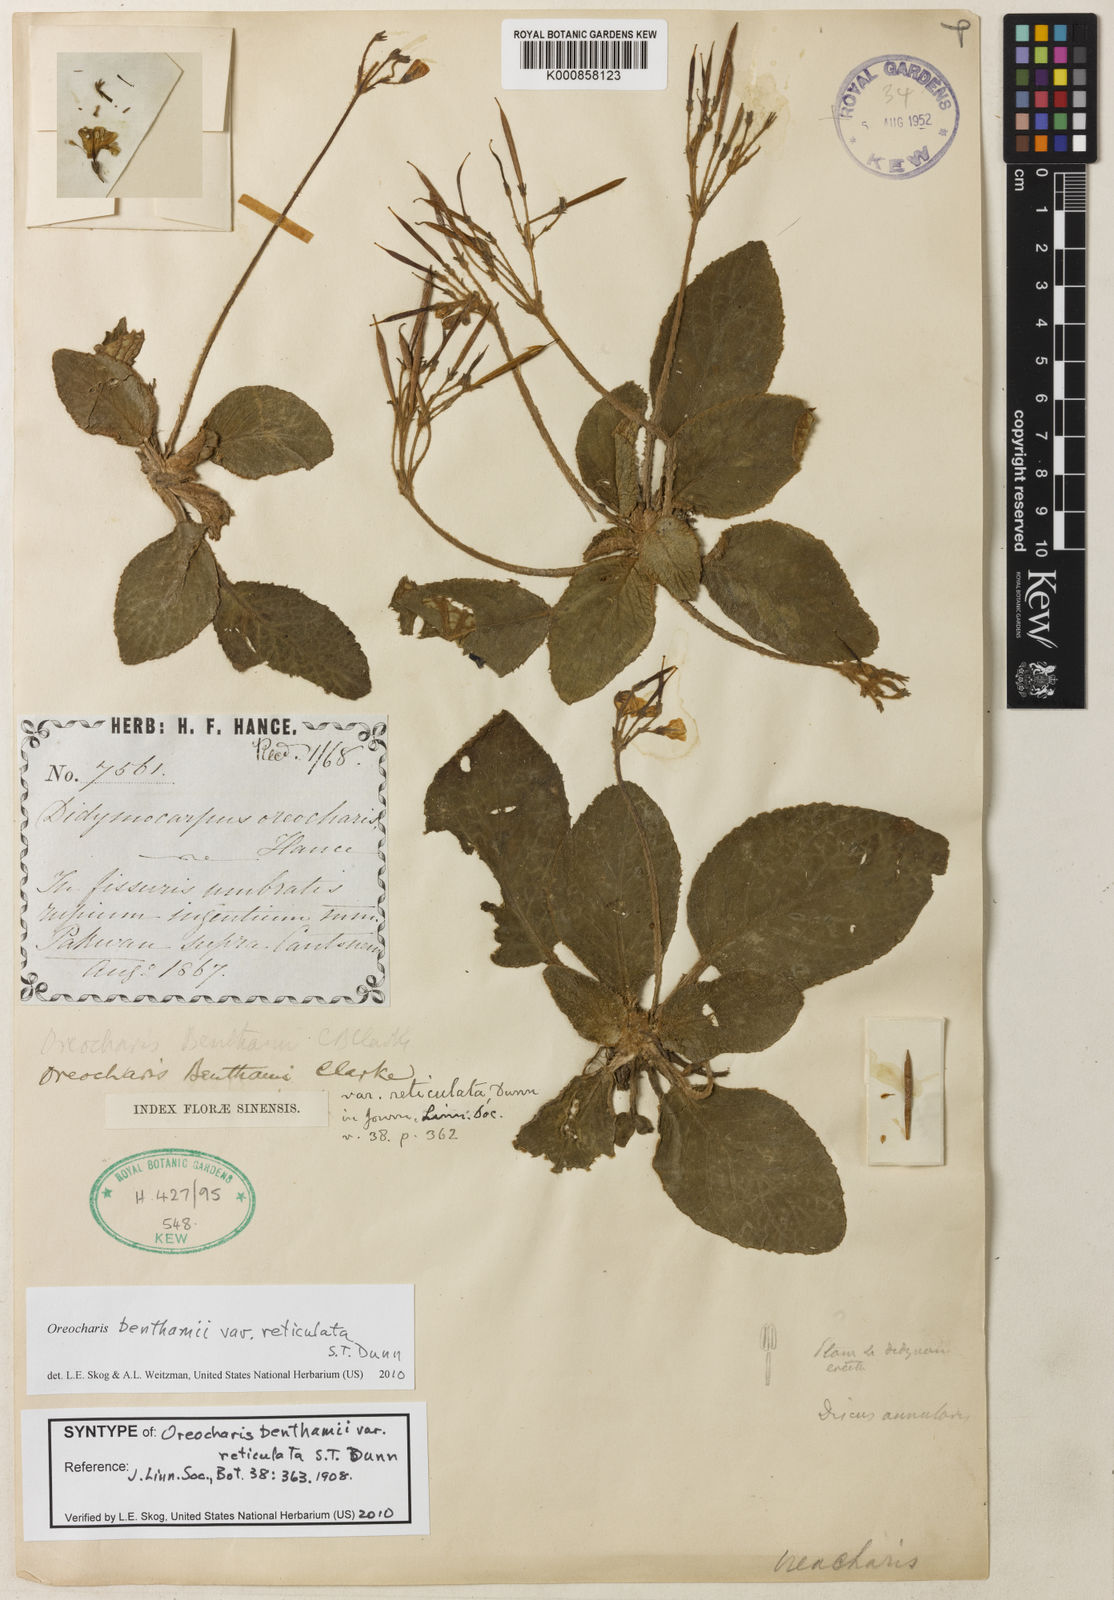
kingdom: Plantae
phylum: Tracheophyta
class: Magnoliopsida
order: Lamiales
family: Gesneriaceae
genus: Oreocharis
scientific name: Oreocharis benthamii
